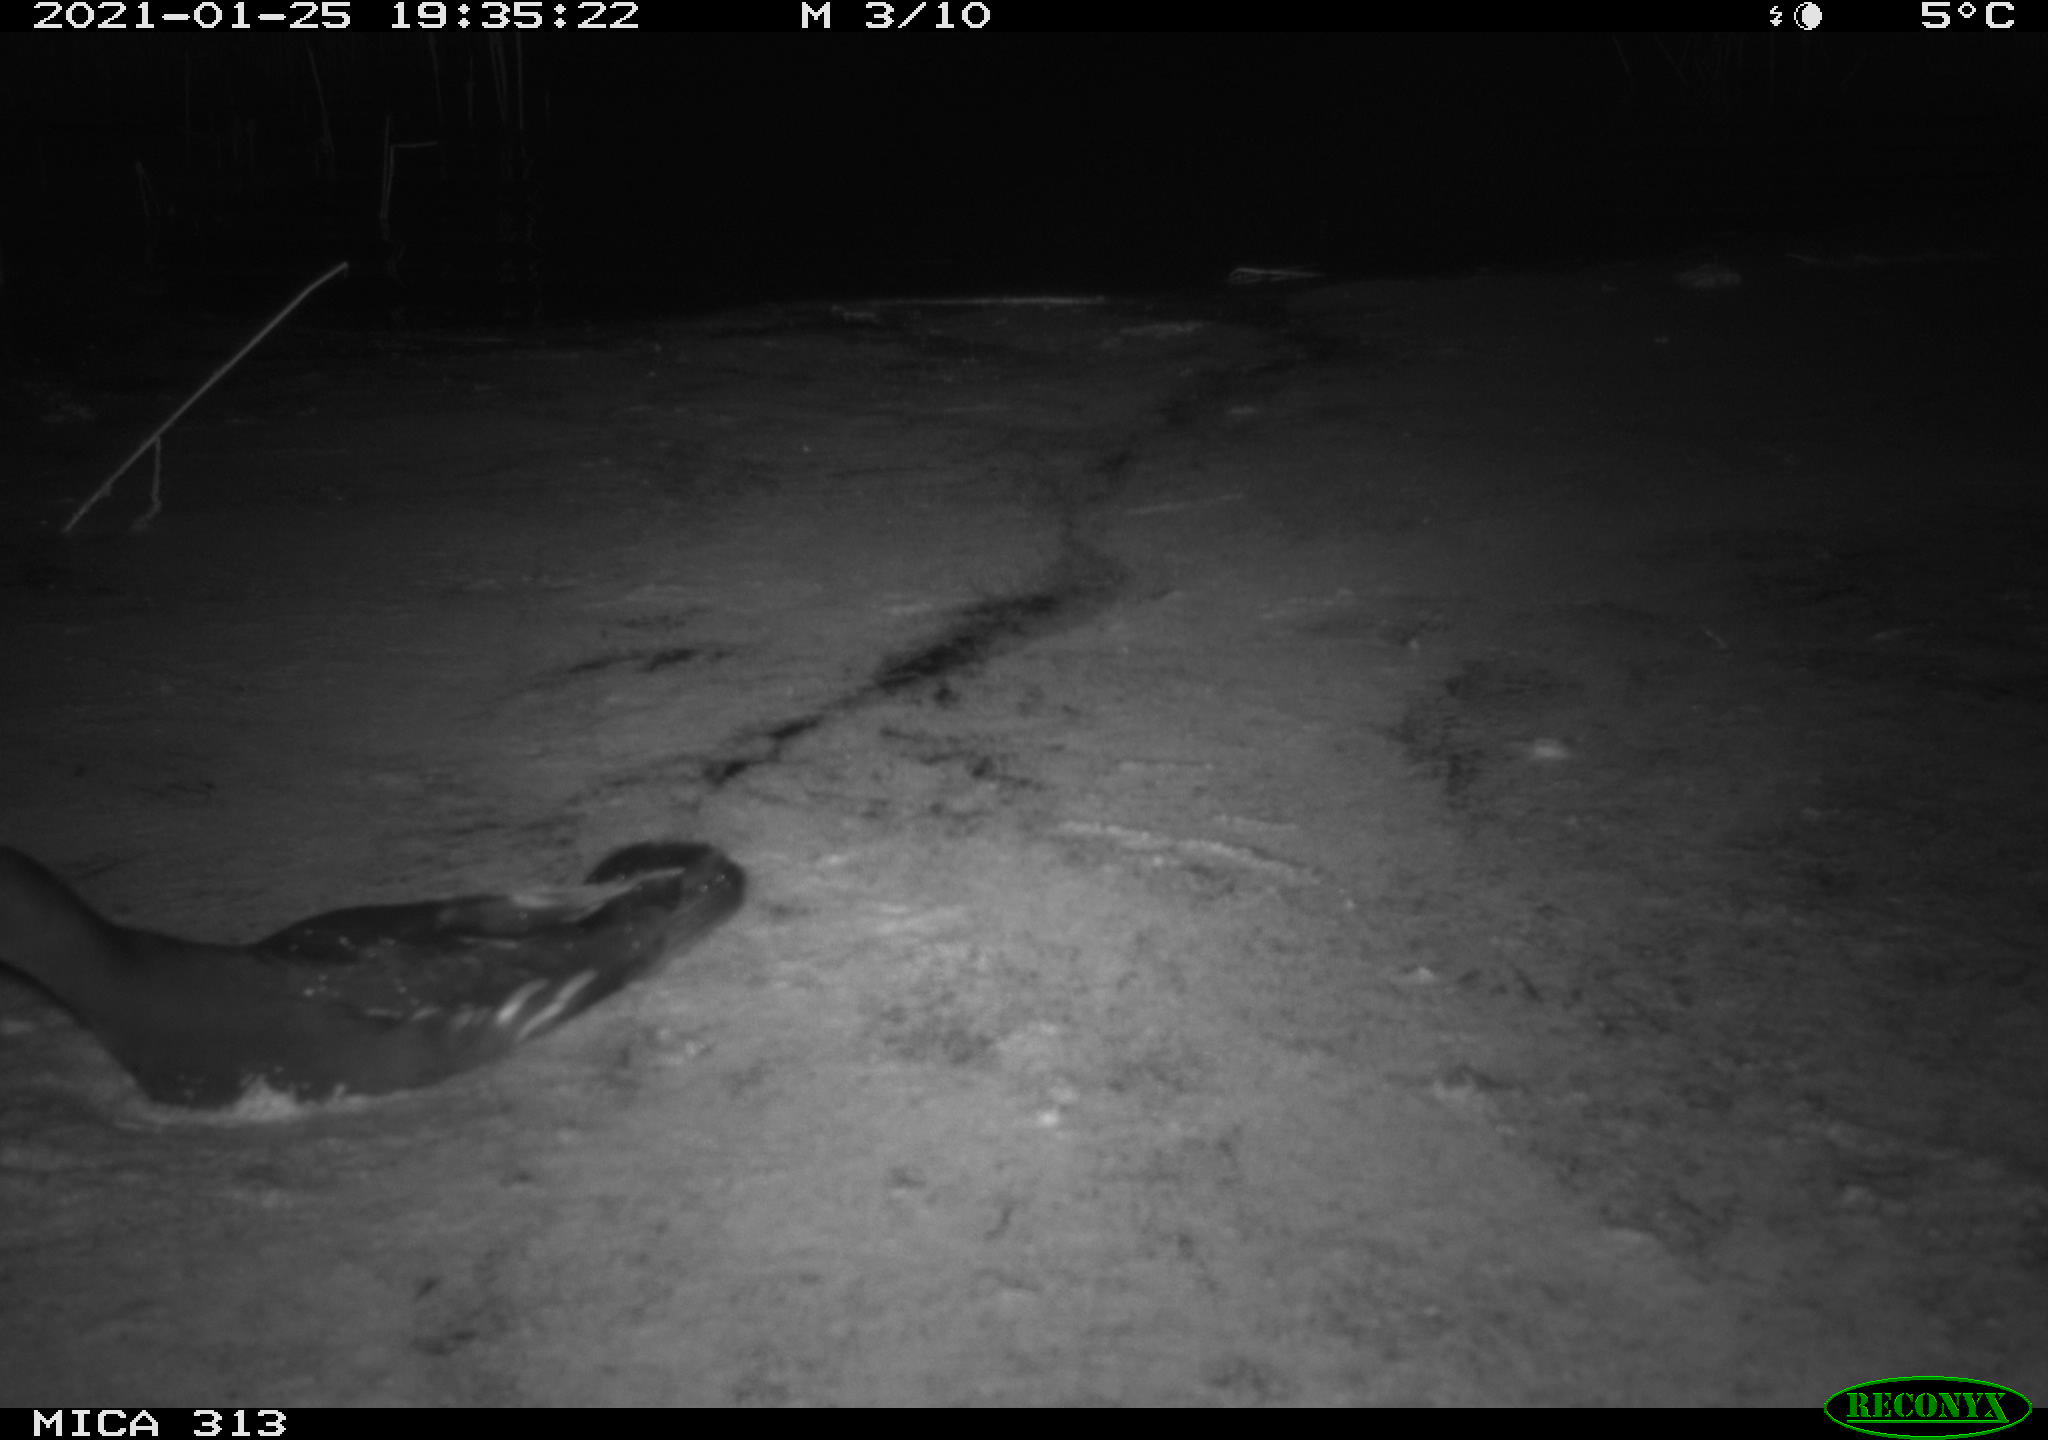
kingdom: Animalia
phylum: Chordata
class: Aves
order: Gruiformes
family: Rallidae
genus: Fulica
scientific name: Fulica atra
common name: Eurasian coot
